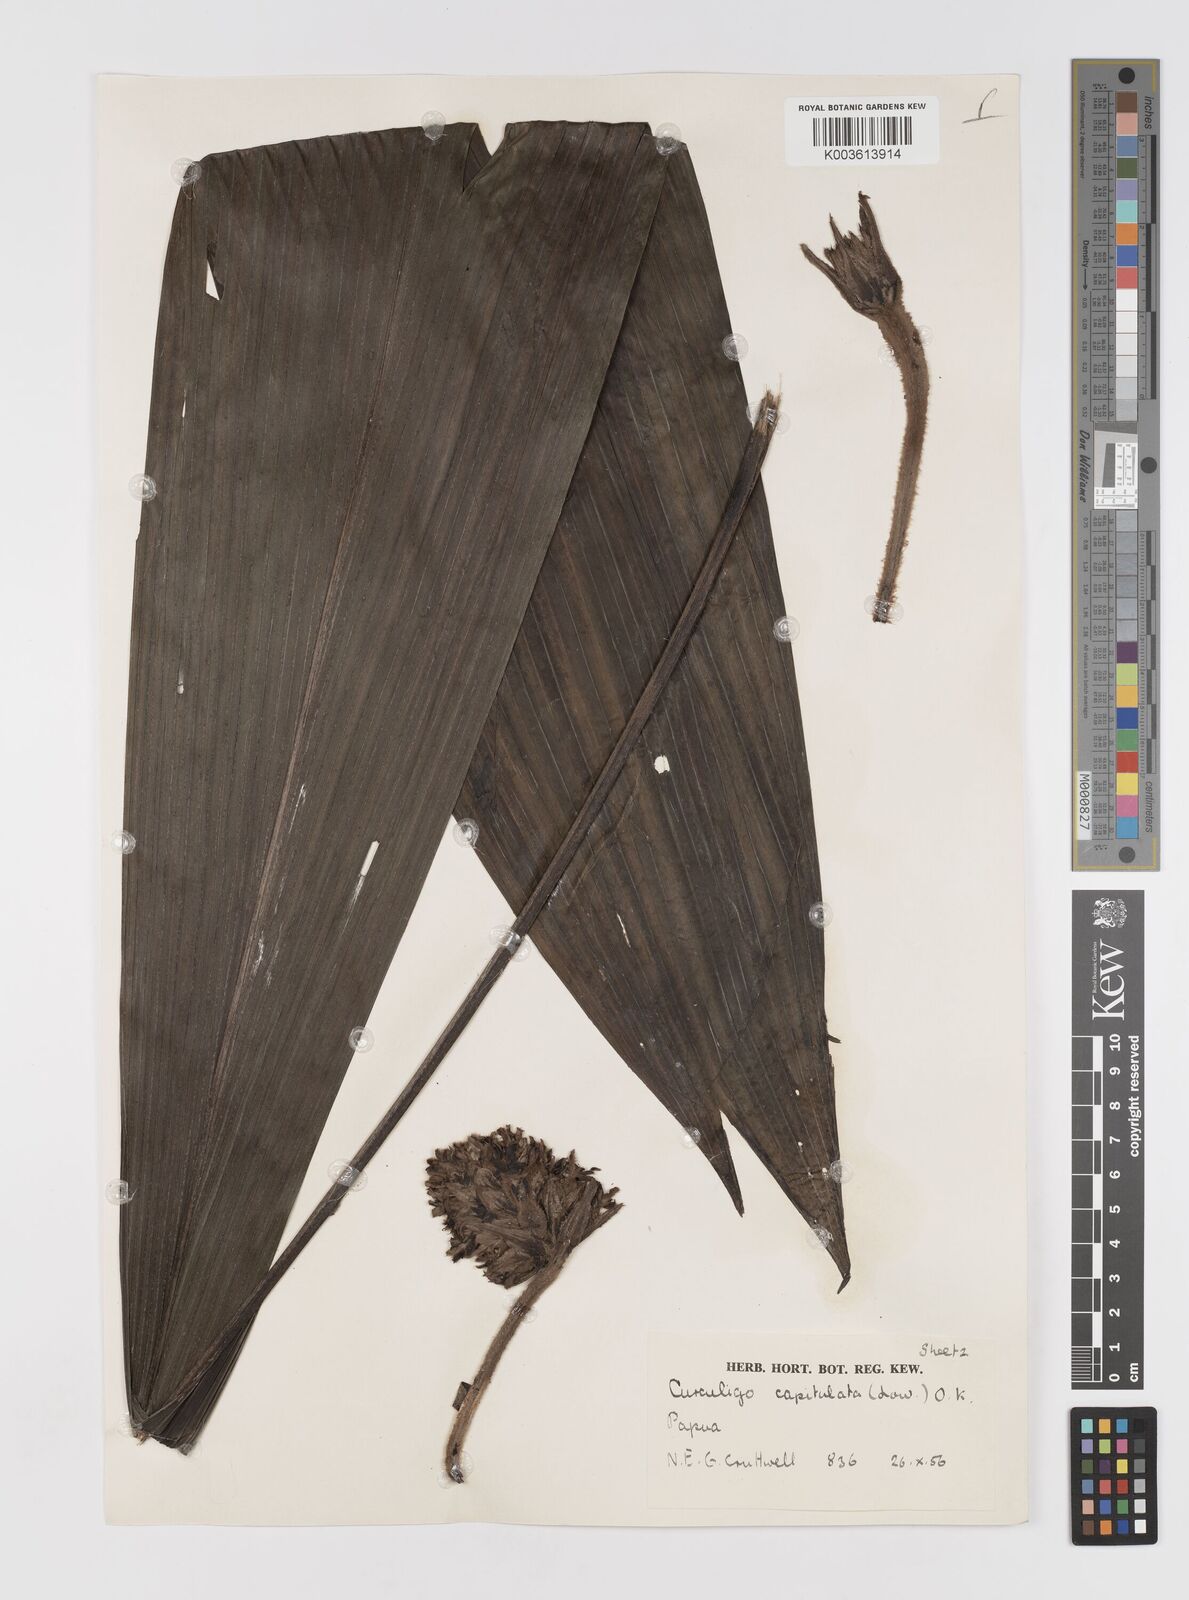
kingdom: Plantae
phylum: Tracheophyta
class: Liliopsida
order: Asparagales
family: Hypoxidaceae
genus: Curculigo
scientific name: Curculigo capitulata
